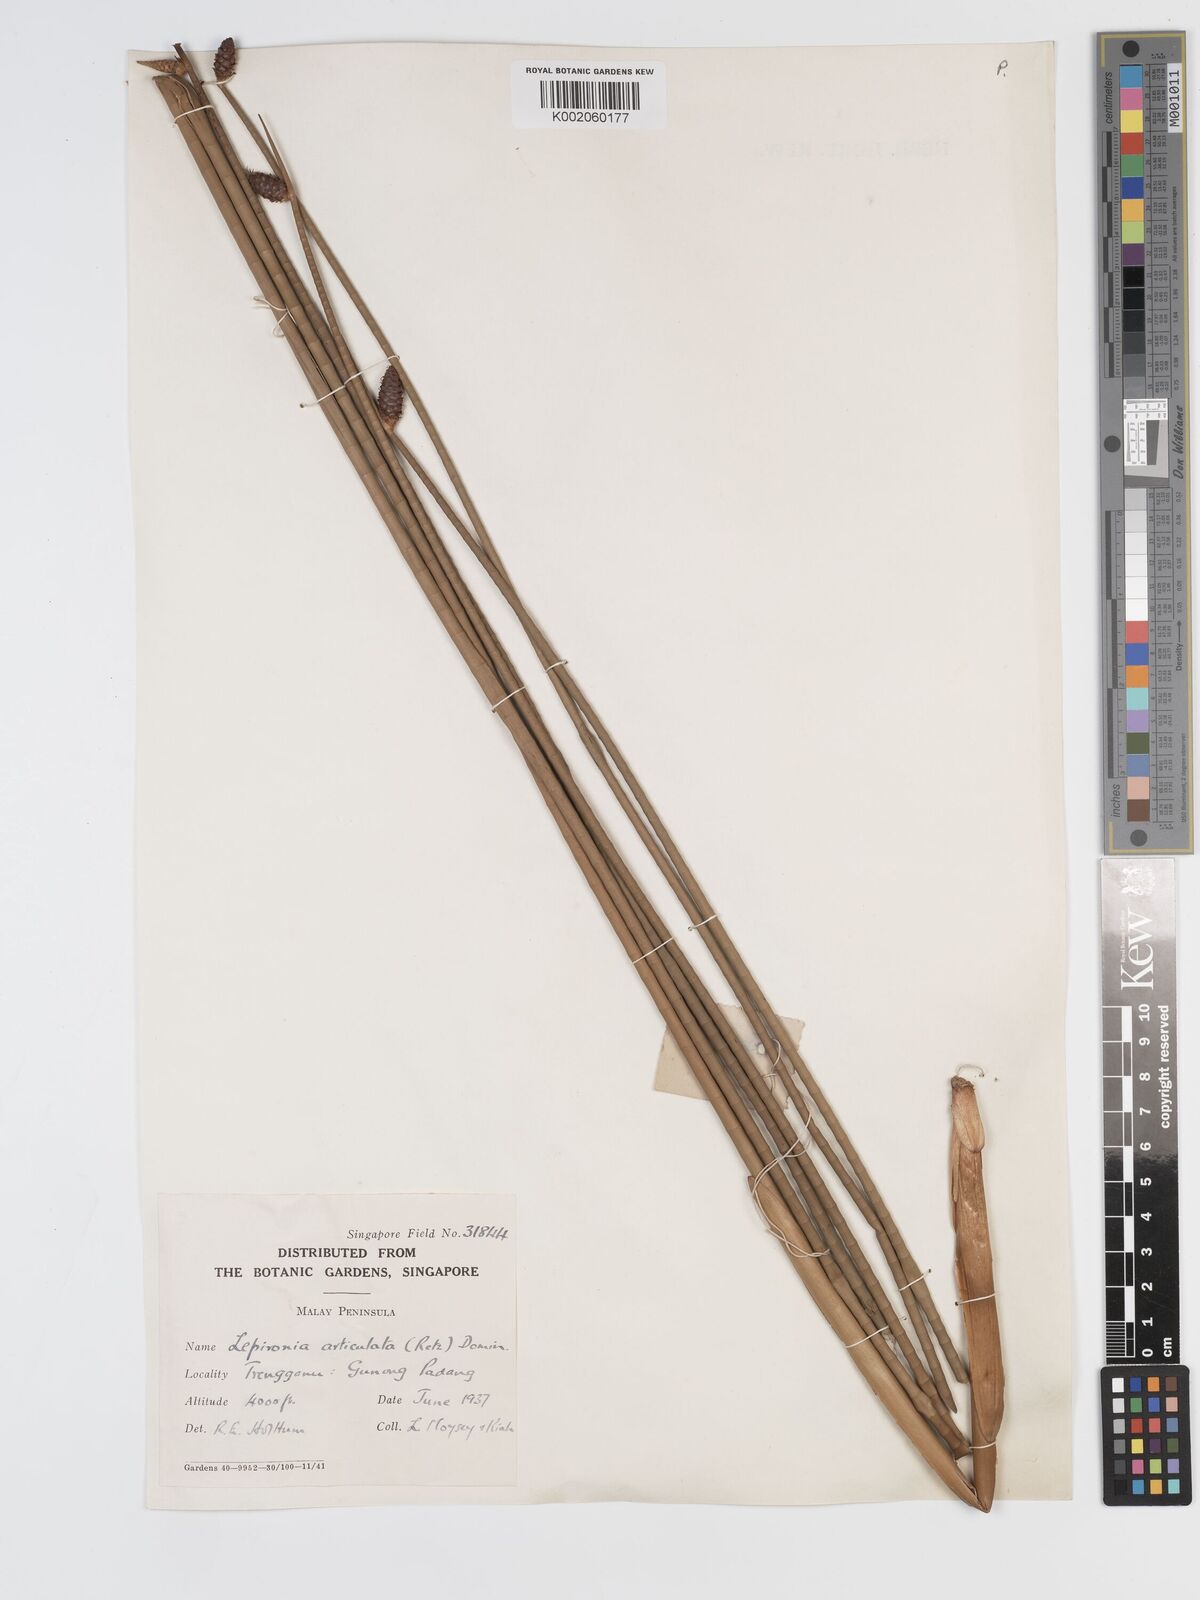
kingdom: Plantae
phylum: Tracheophyta
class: Liliopsida
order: Poales
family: Cyperaceae
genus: Lepironia
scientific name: Lepironia articulata
